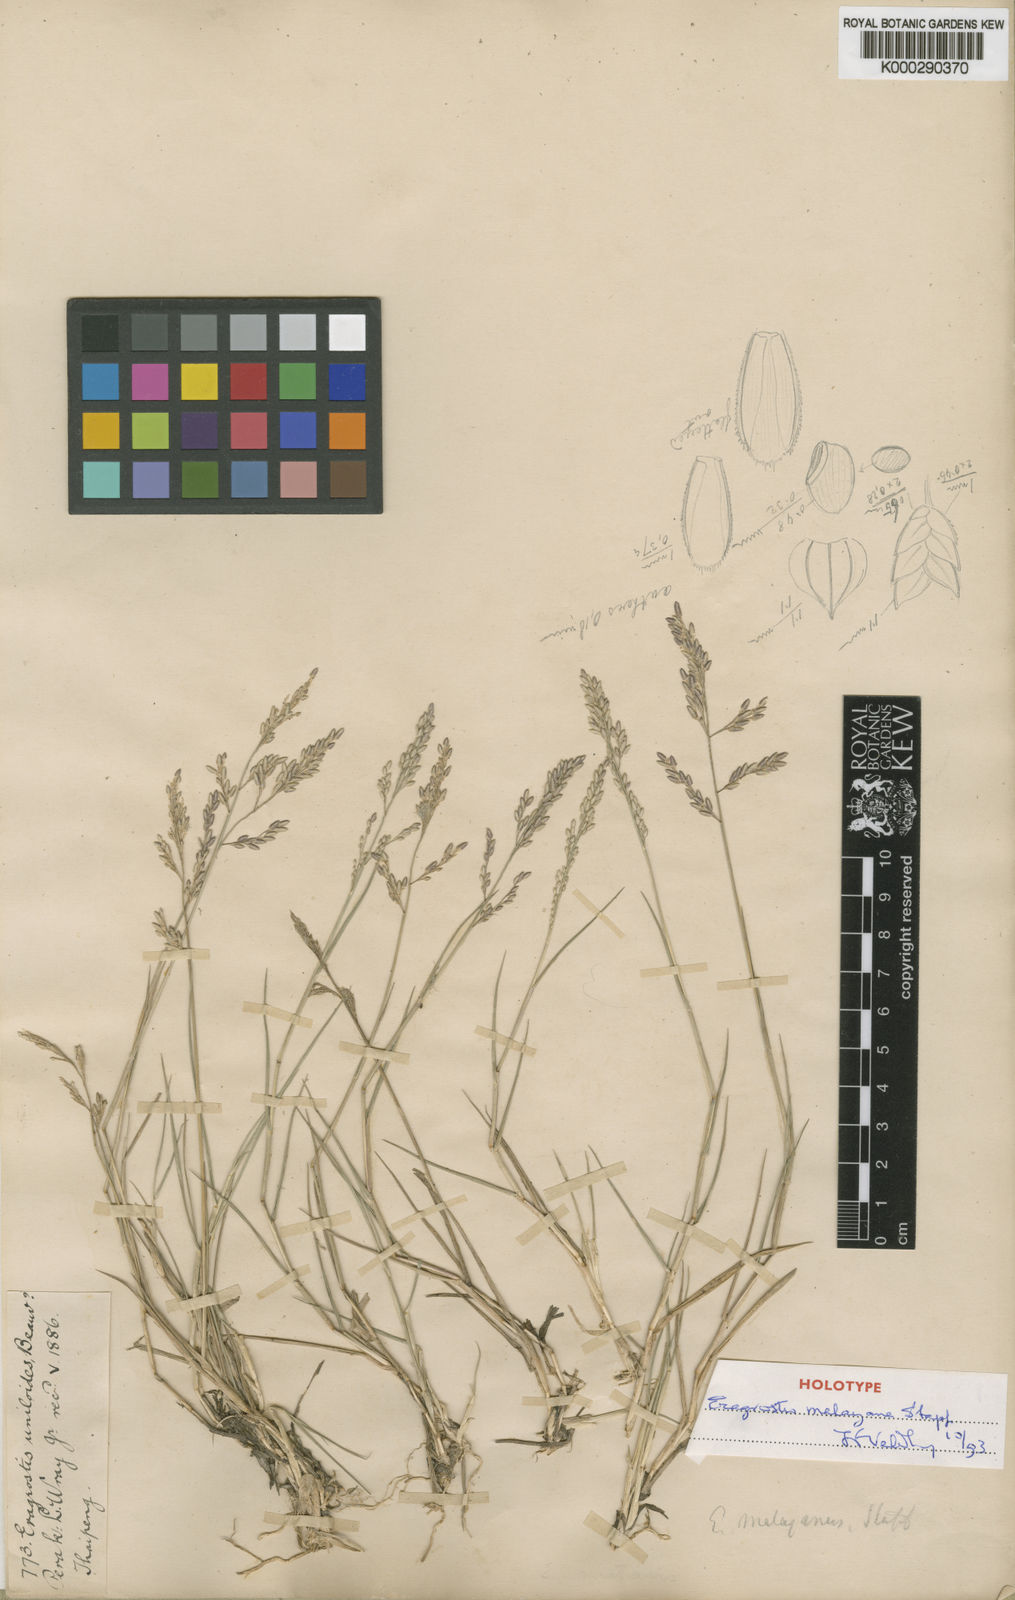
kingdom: Plantae
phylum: Tracheophyta
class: Liliopsida
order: Poales
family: Poaceae
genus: Eragrostis
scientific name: Eragrostis montana
